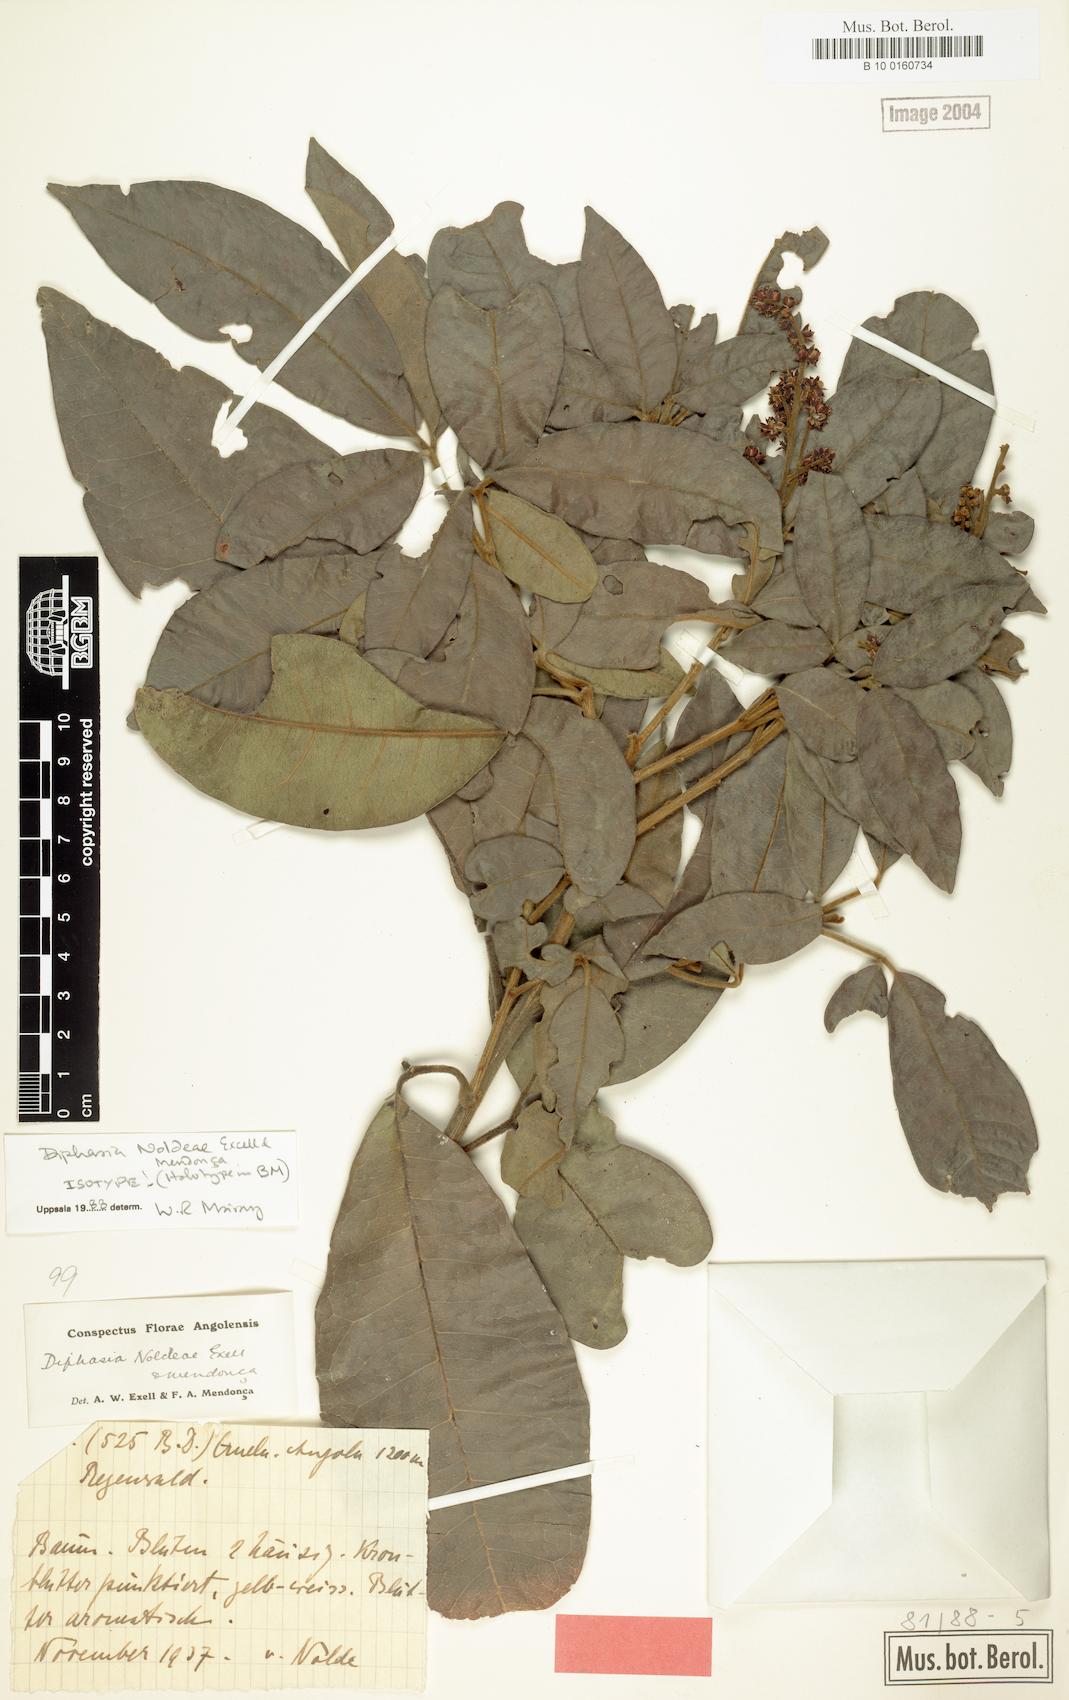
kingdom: Plantae
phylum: Tracheophyta
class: Magnoliopsida
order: Sapindales
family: Rutaceae
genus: Vepris
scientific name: Vepris noldeae
